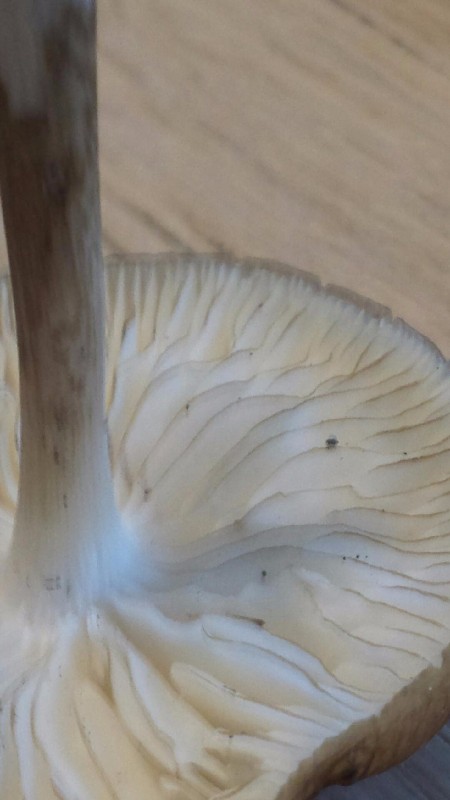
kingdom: Fungi
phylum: Basidiomycota
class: Agaricomycetes
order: Agaricales
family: Physalacriaceae
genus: Hymenopellis
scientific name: Hymenopellis radicata
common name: almindelig pælerodshat
